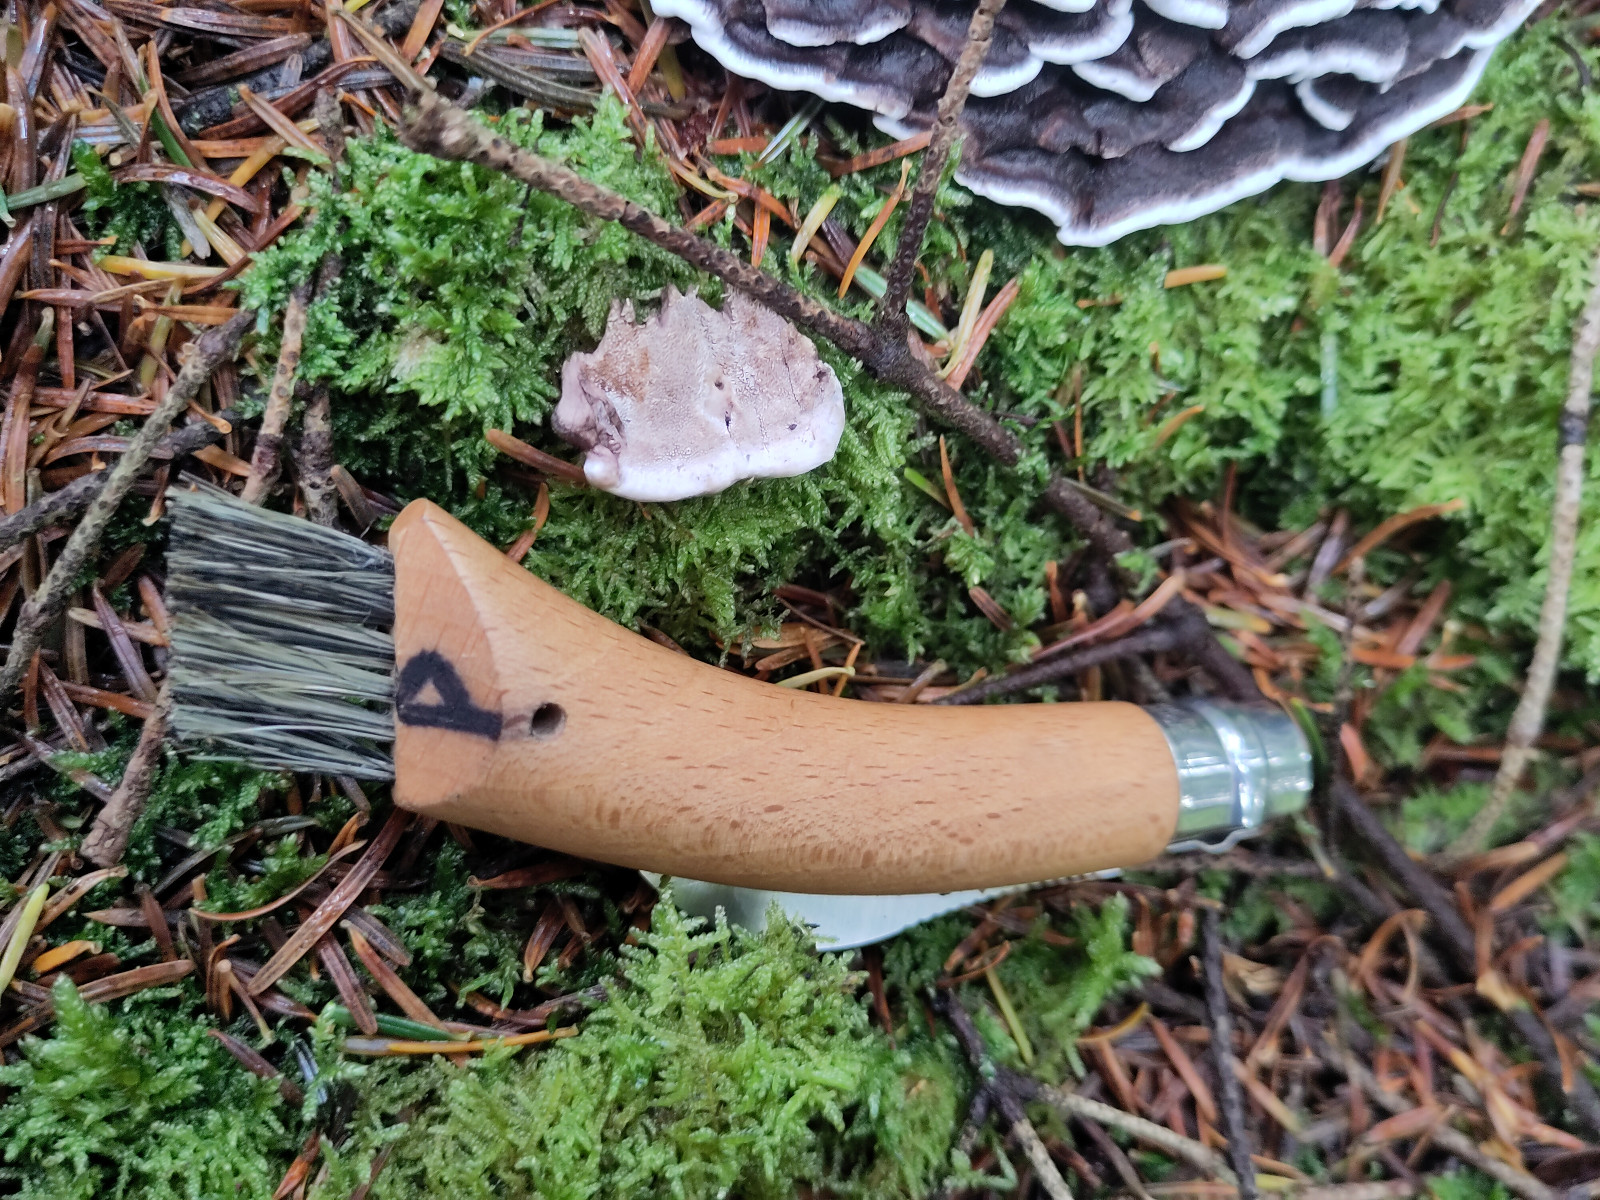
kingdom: Fungi
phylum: Basidiomycota
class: Agaricomycetes
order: Thelephorales
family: Thelephoraceae
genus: Phellodon
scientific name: Phellodon tomentosus
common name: vellugtende duftpigsvamp
